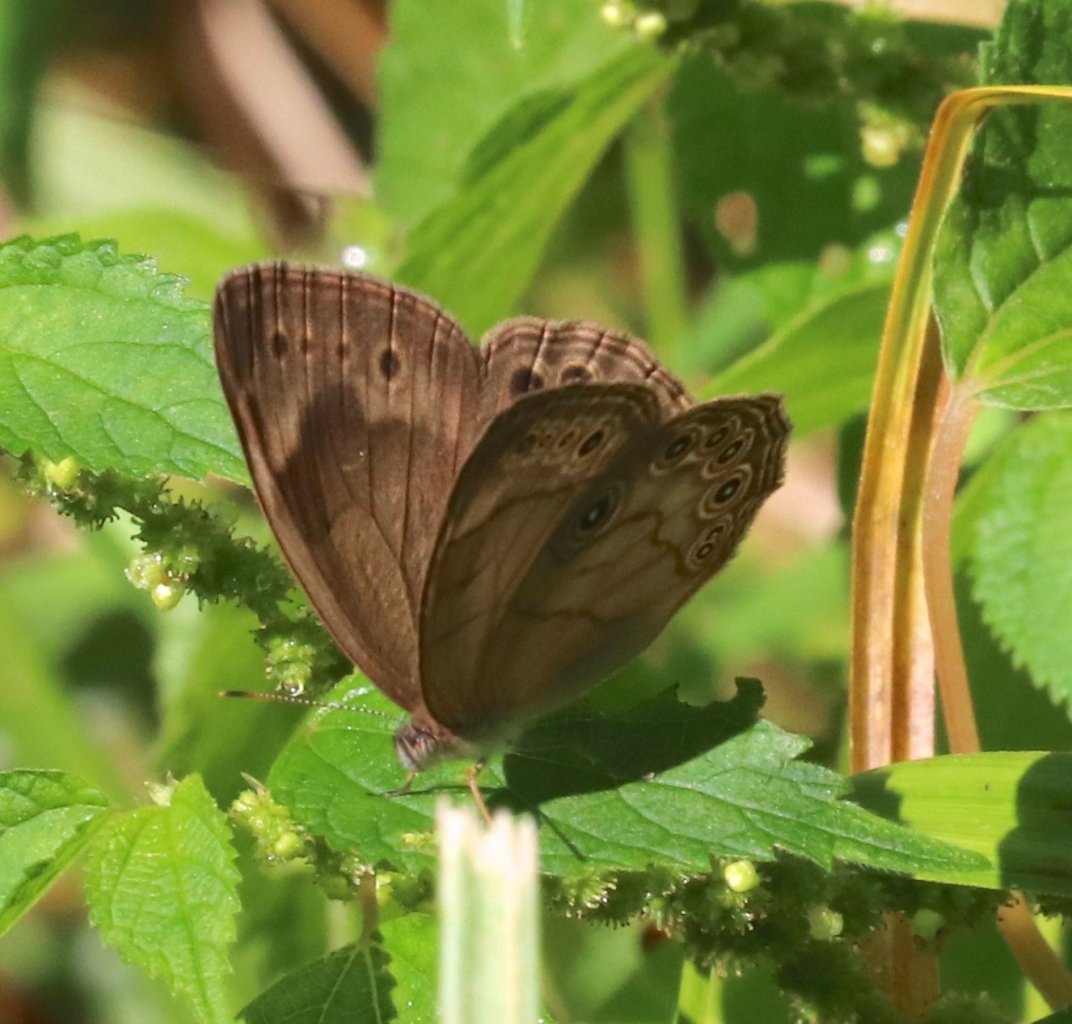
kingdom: Animalia
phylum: Arthropoda
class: Insecta
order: Lepidoptera
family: Nymphalidae
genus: Lethe
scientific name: Lethe eurydice
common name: Appalachian Eyed Brown
